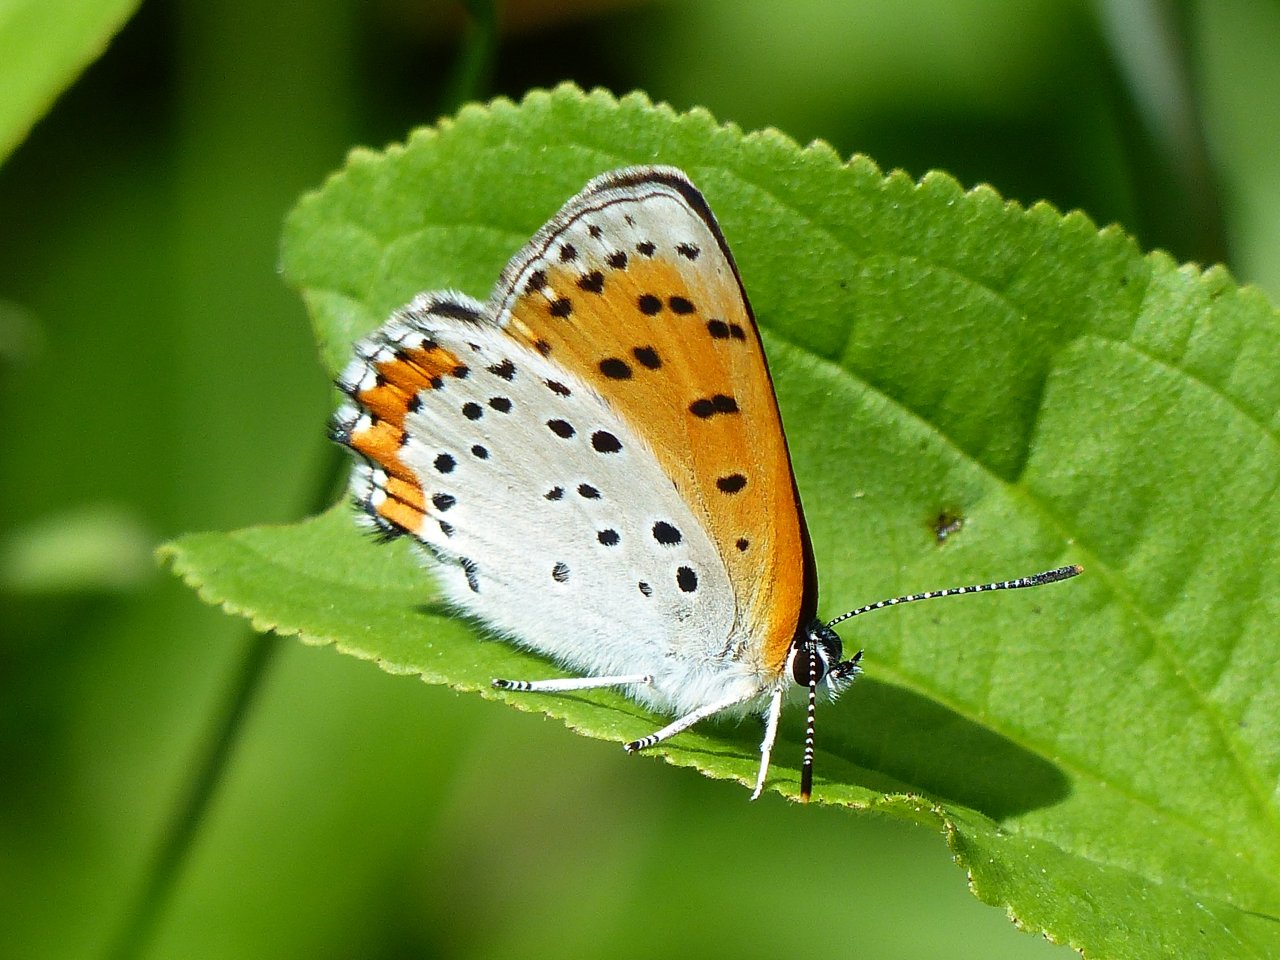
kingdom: Animalia
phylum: Arthropoda
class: Insecta
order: Lepidoptera
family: Sesiidae
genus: Sesia
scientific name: Sesia Lycaena hyllus
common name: Bronze Copper
